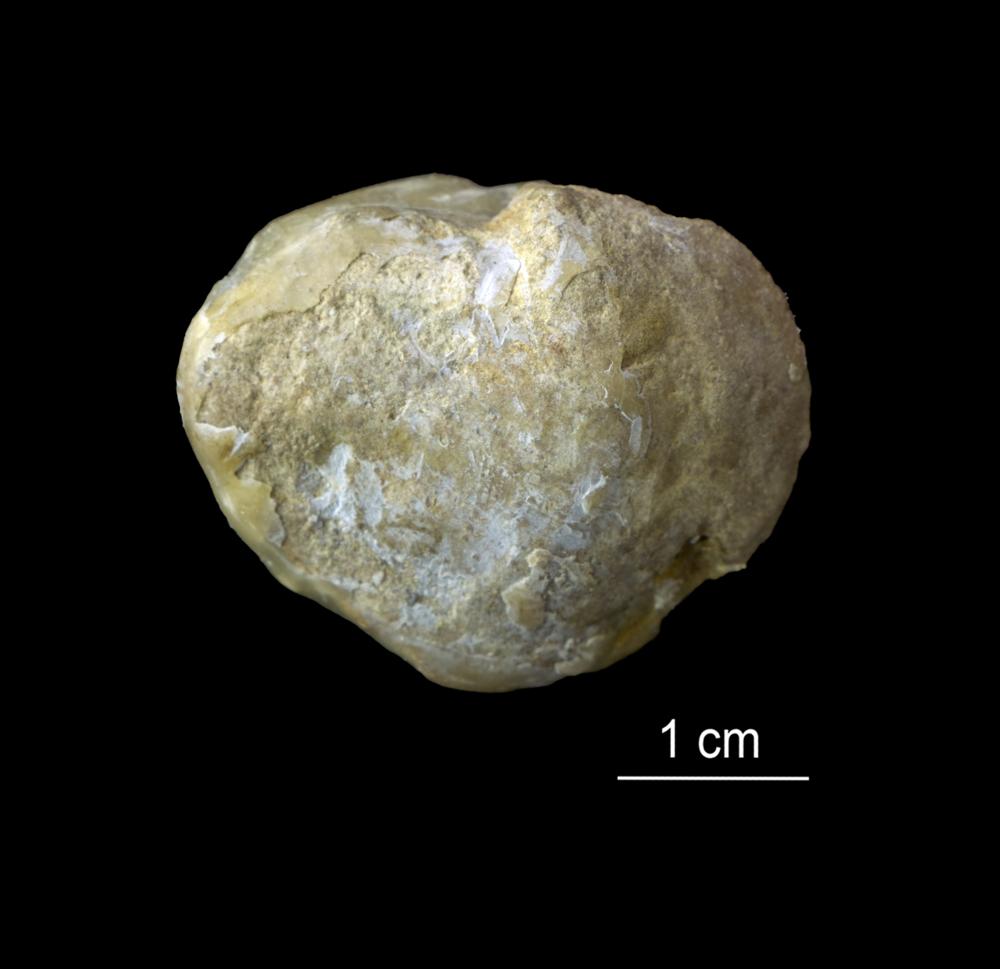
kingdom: Animalia
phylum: Mollusca
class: Bivalvia
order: Lucinida
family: Lucinidae
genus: Illionia
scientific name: Illionia Lucina prisca
